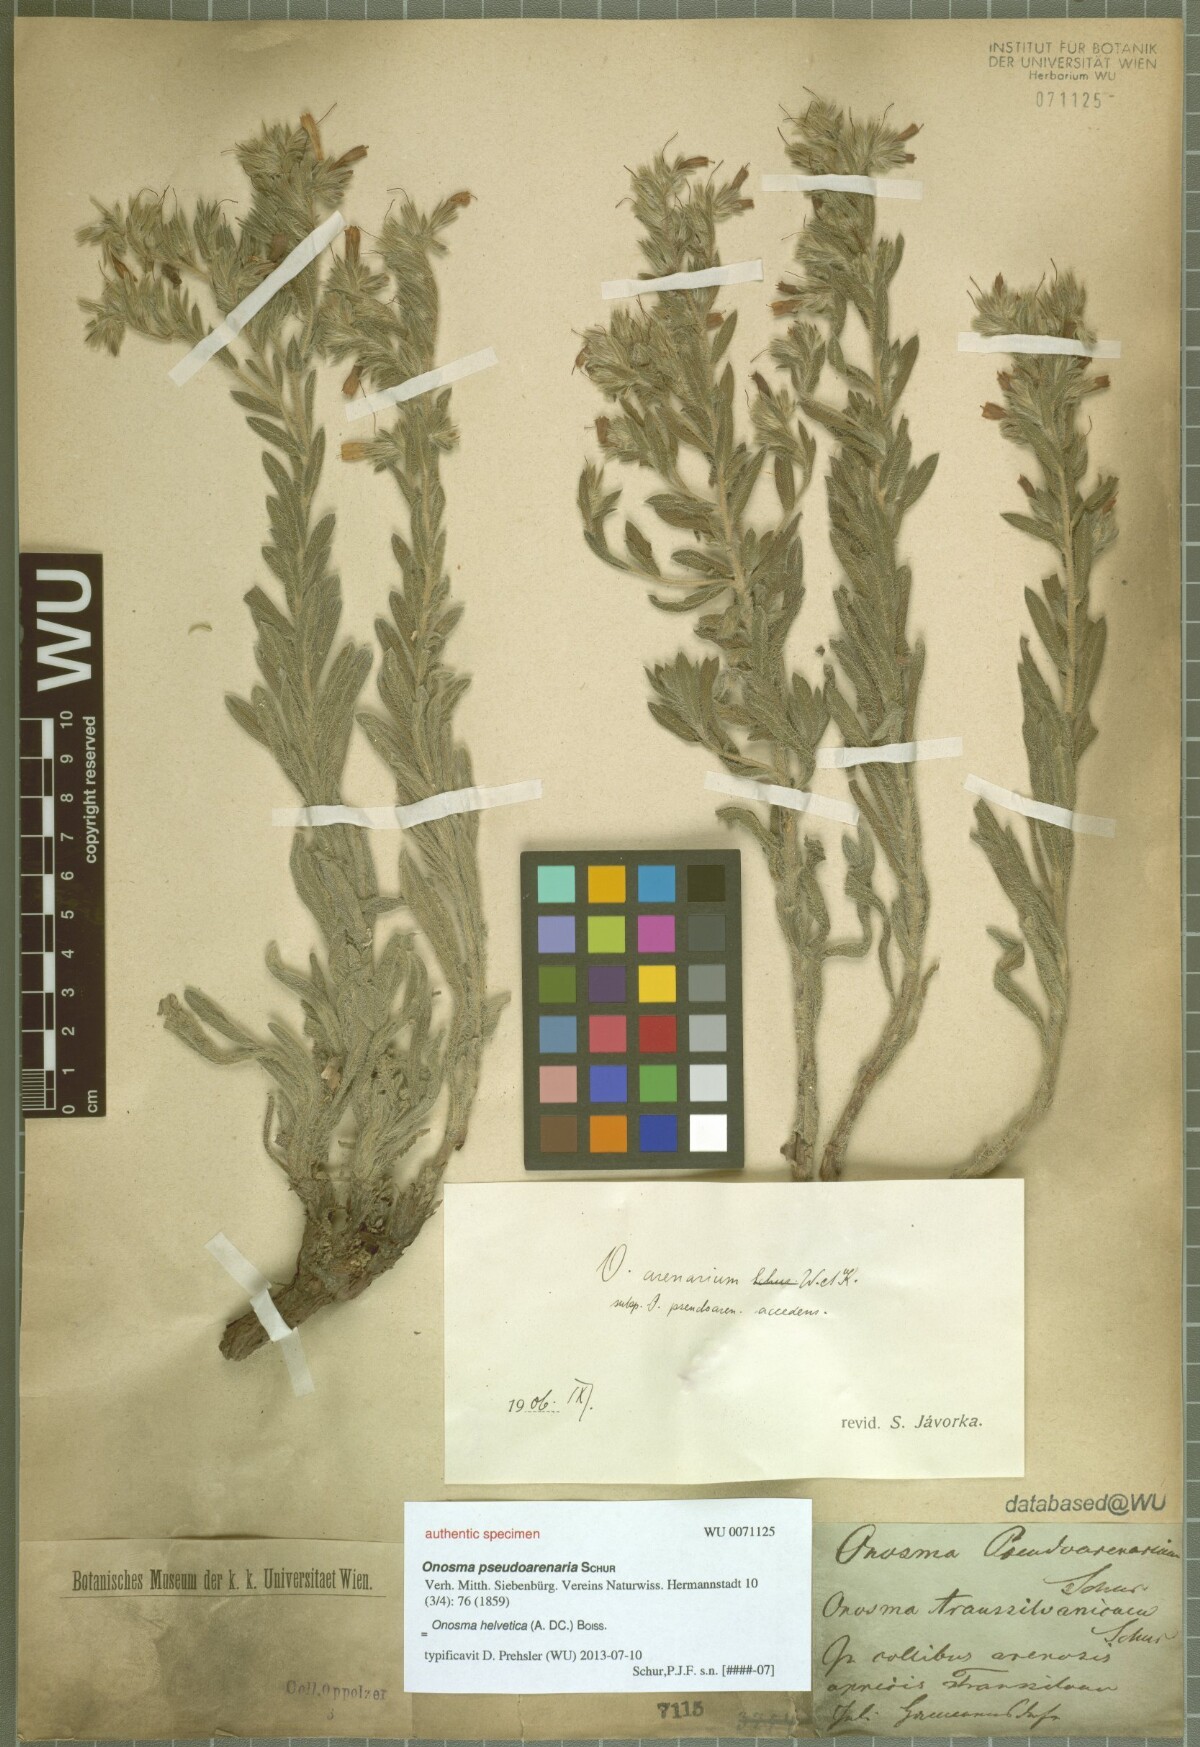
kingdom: Plantae
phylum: Tracheophyta
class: Magnoliopsida
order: Boraginales
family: Boraginaceae
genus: Onosma
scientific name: Onosma pseudoarenaria
